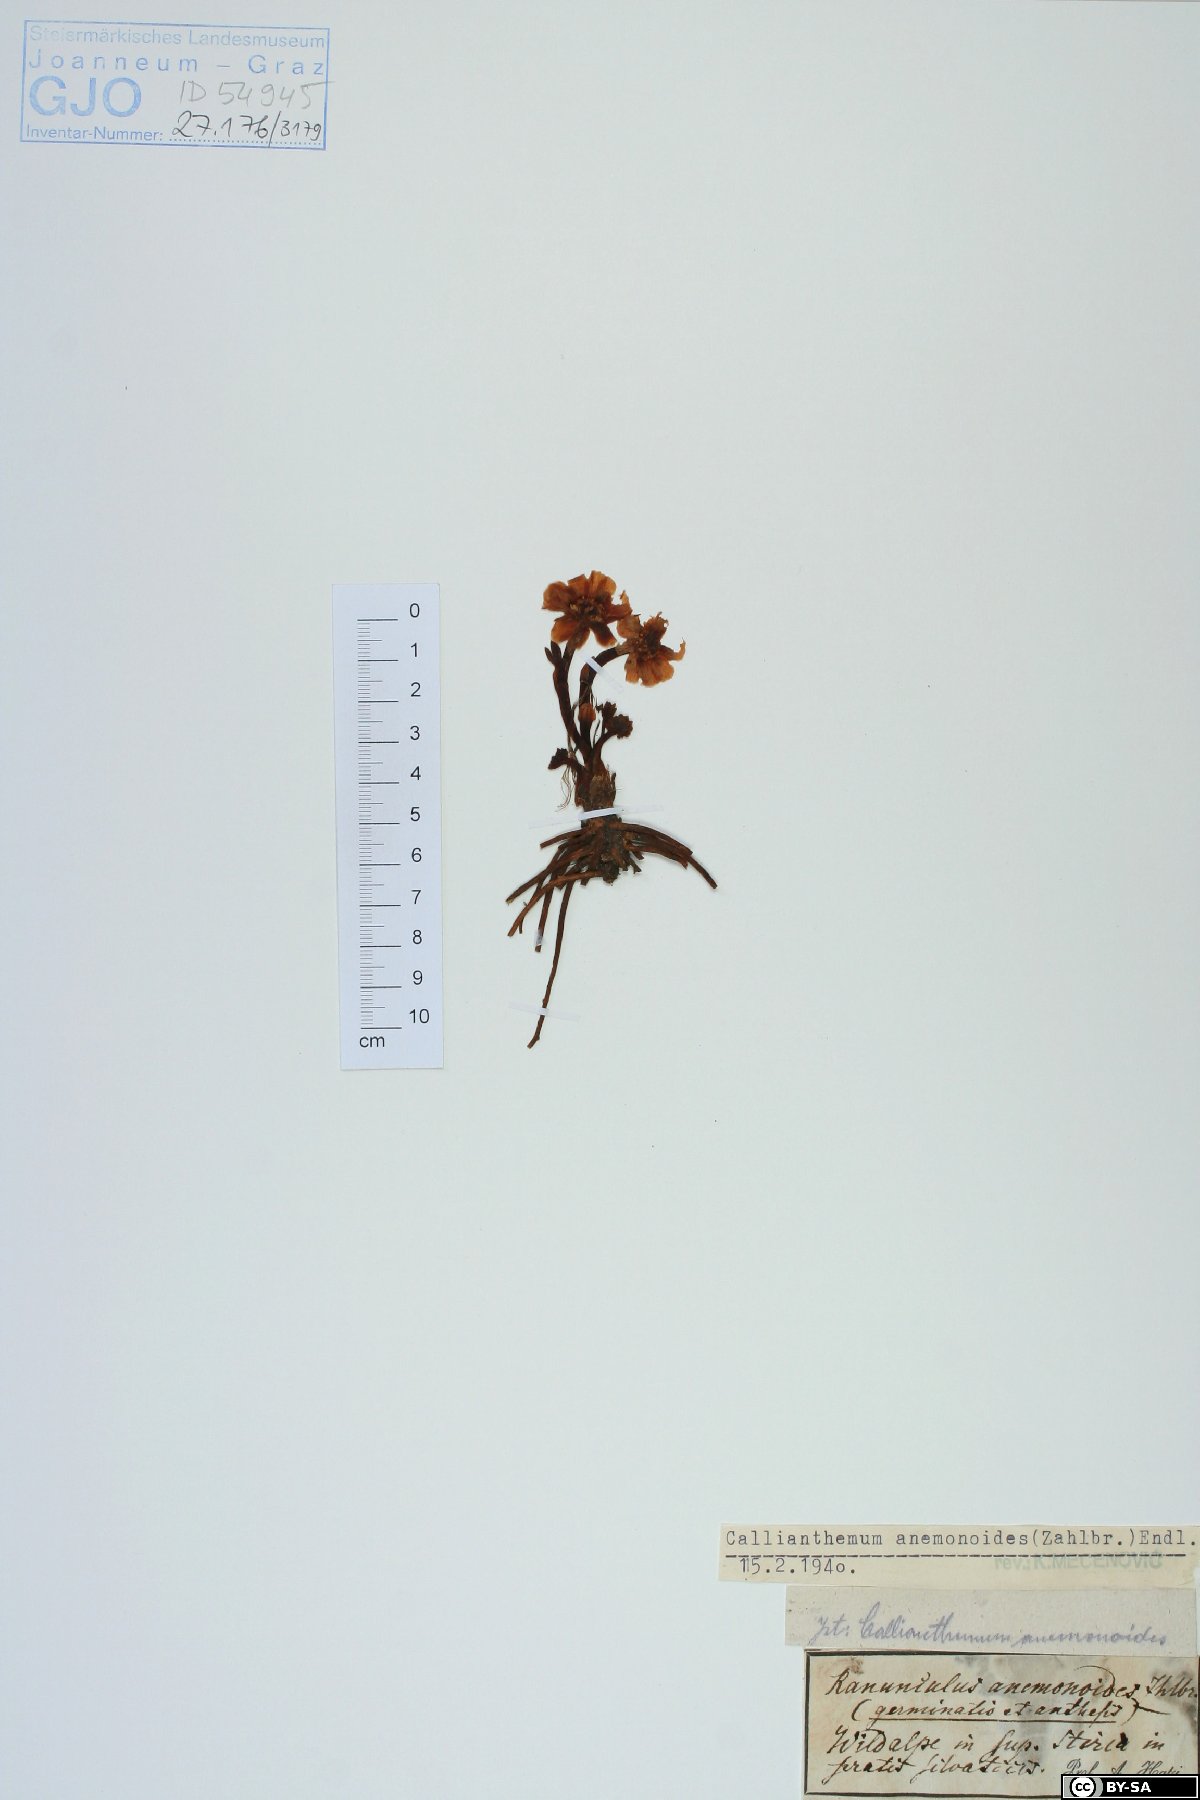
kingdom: Plantae
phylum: Tracheophyta
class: Magnoliopsida
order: Ranunculales
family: Ranunculaceae
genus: Callianthemum
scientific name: Callianthemum anemonoides
